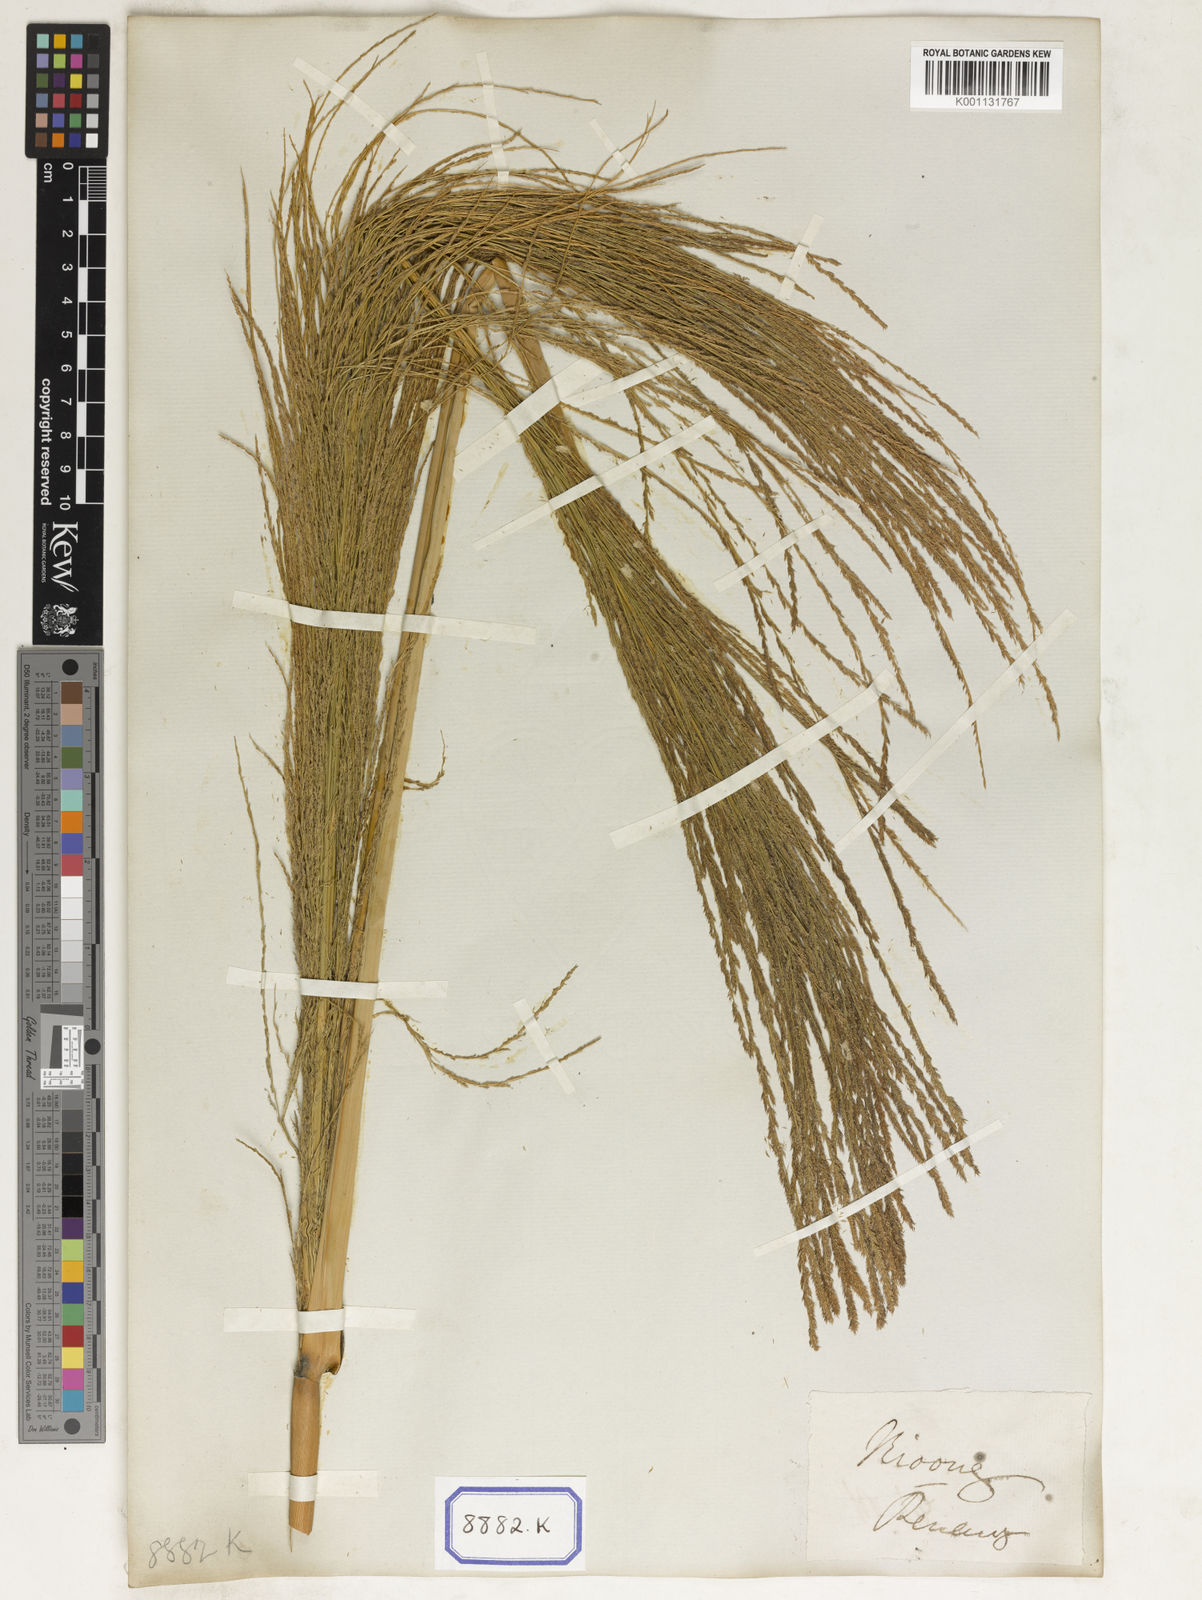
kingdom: Plantae
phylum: Tracheophyta
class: Liliopsida
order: Poales
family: Poaceae
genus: Thysanolaena
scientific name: Thysanolaena latifolia
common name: Tiger grass
